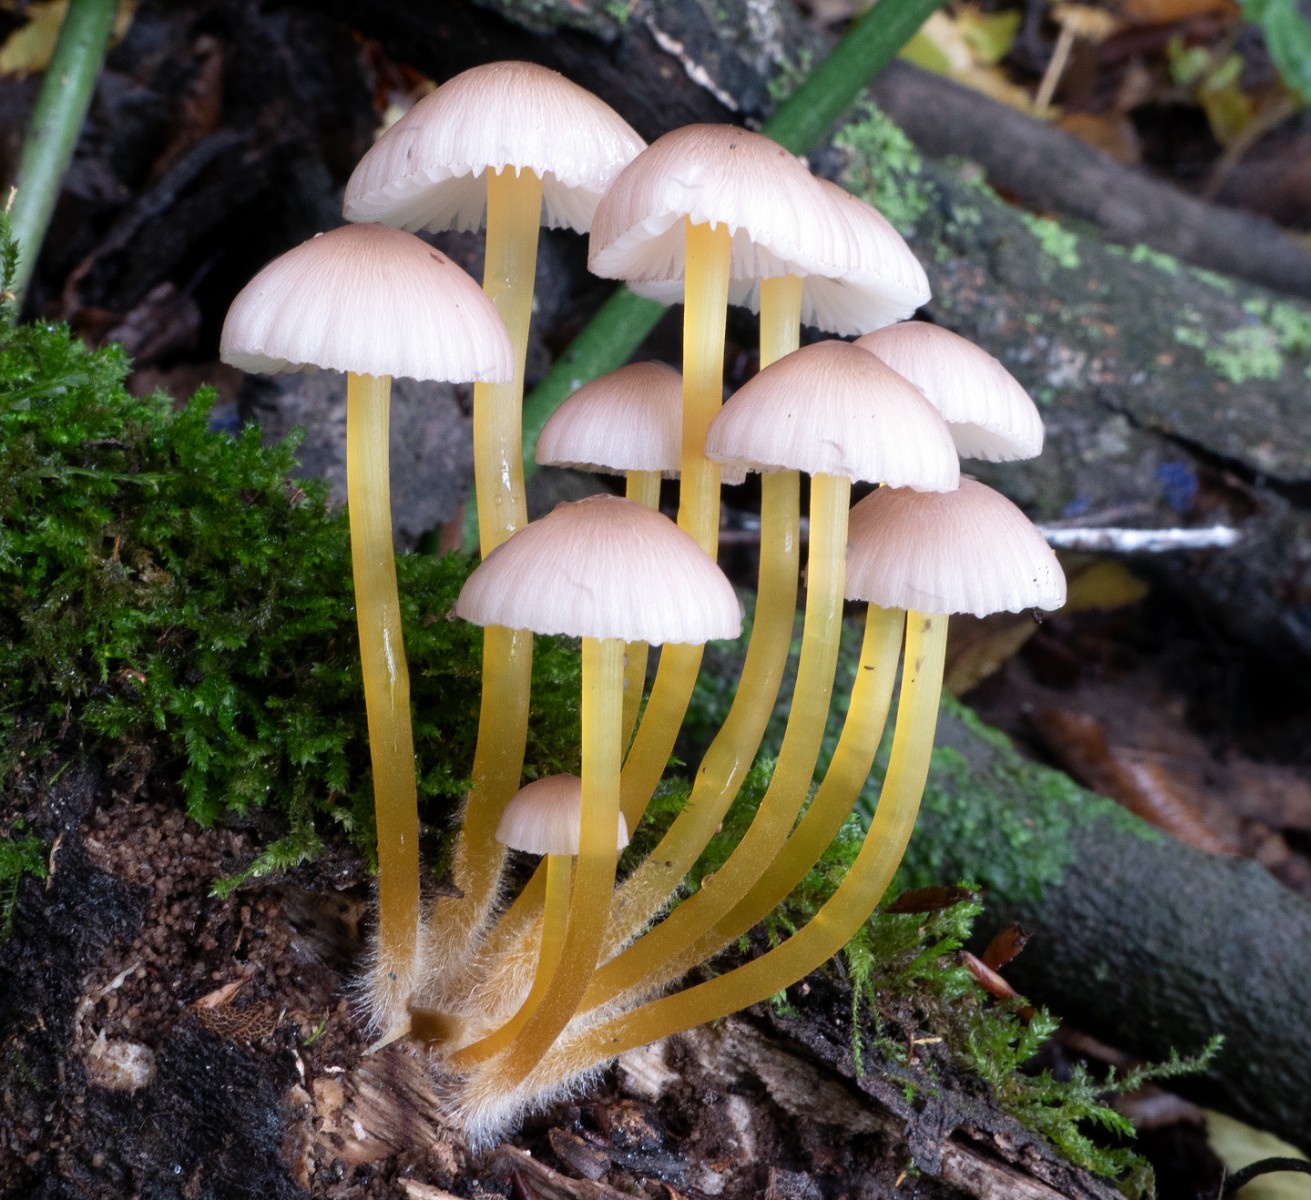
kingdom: Fungi
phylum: Basidiomycota
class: Agaricomycetes
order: Agaricales
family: Mycenaceae
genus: Mycena
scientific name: Mycena renati
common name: smuk huesvamp
